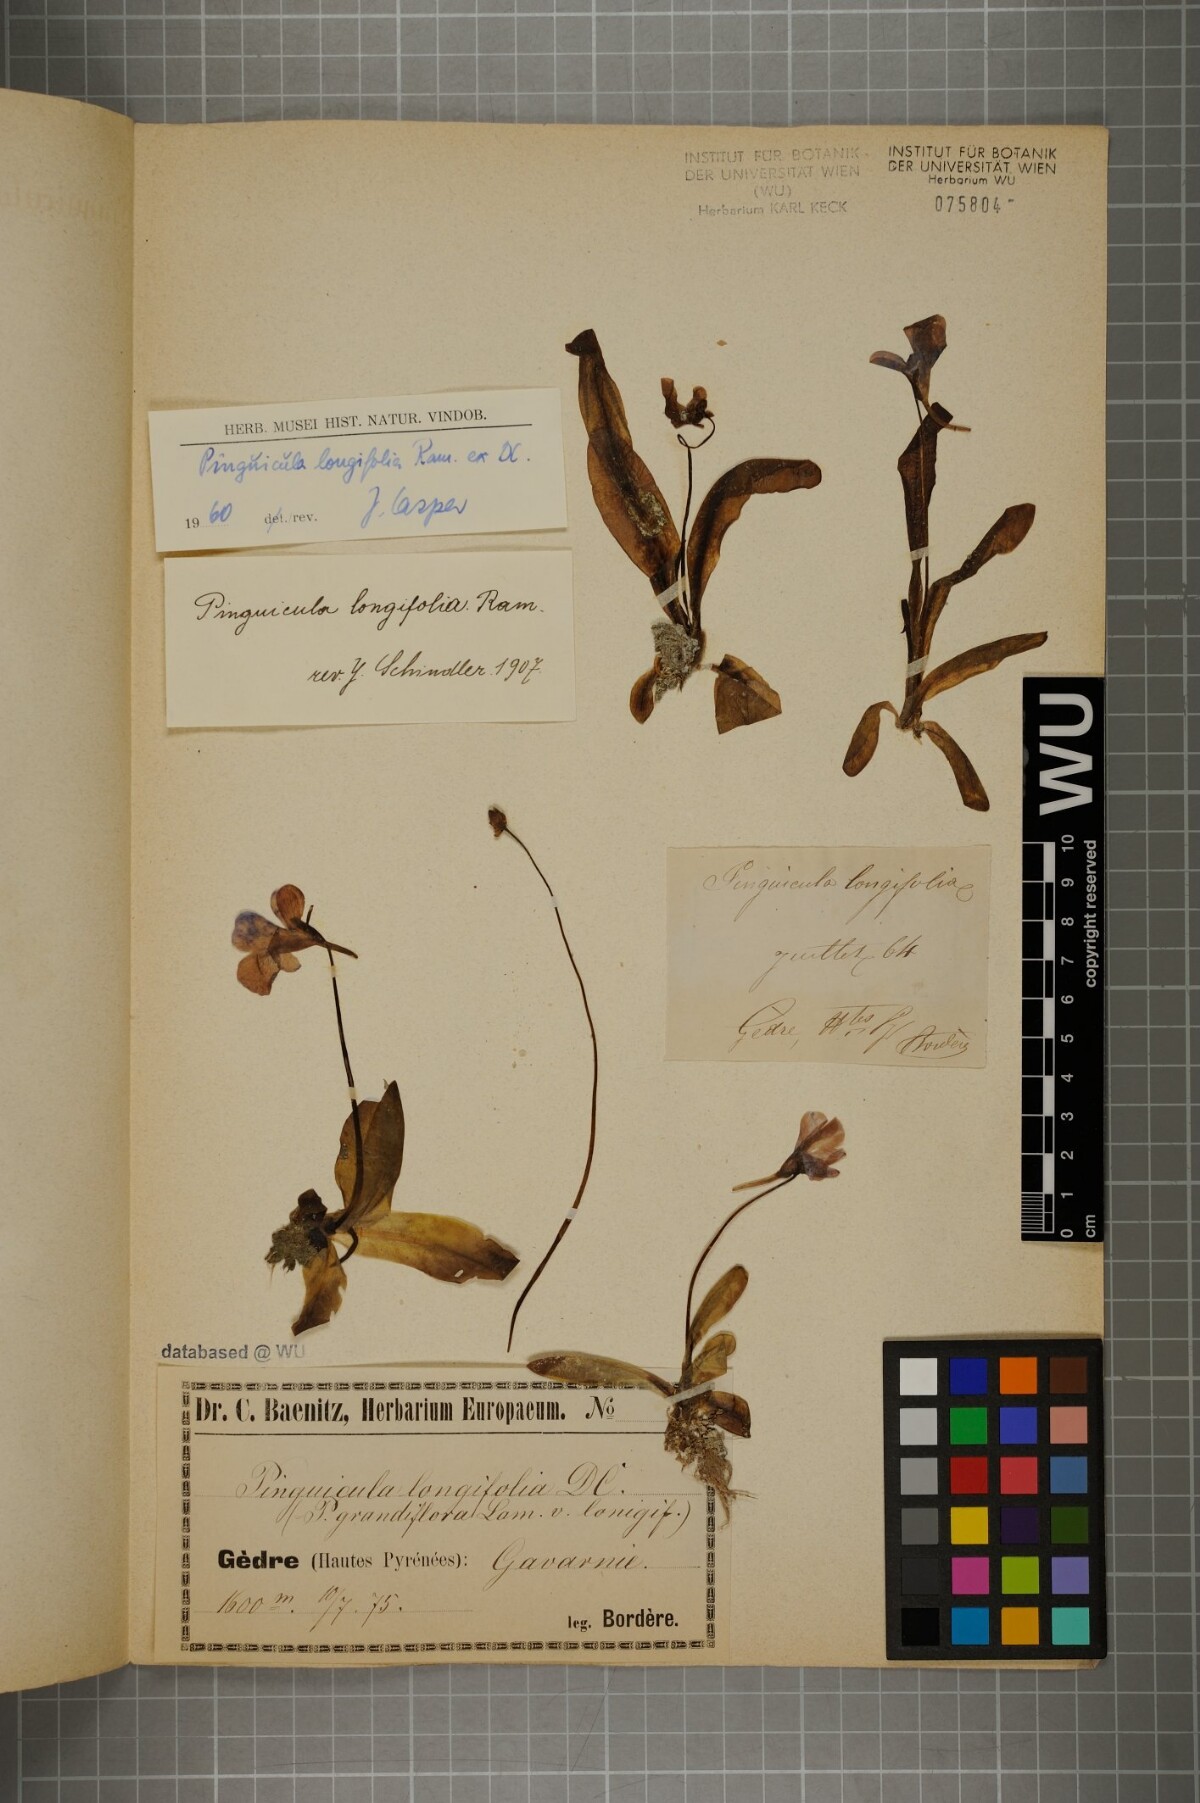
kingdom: Plantae
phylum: Tracheophyta
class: Magnoliopsida
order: Lamiales
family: Lentibulariaceae
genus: Pinguicula
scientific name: Pinguicula longifolia
